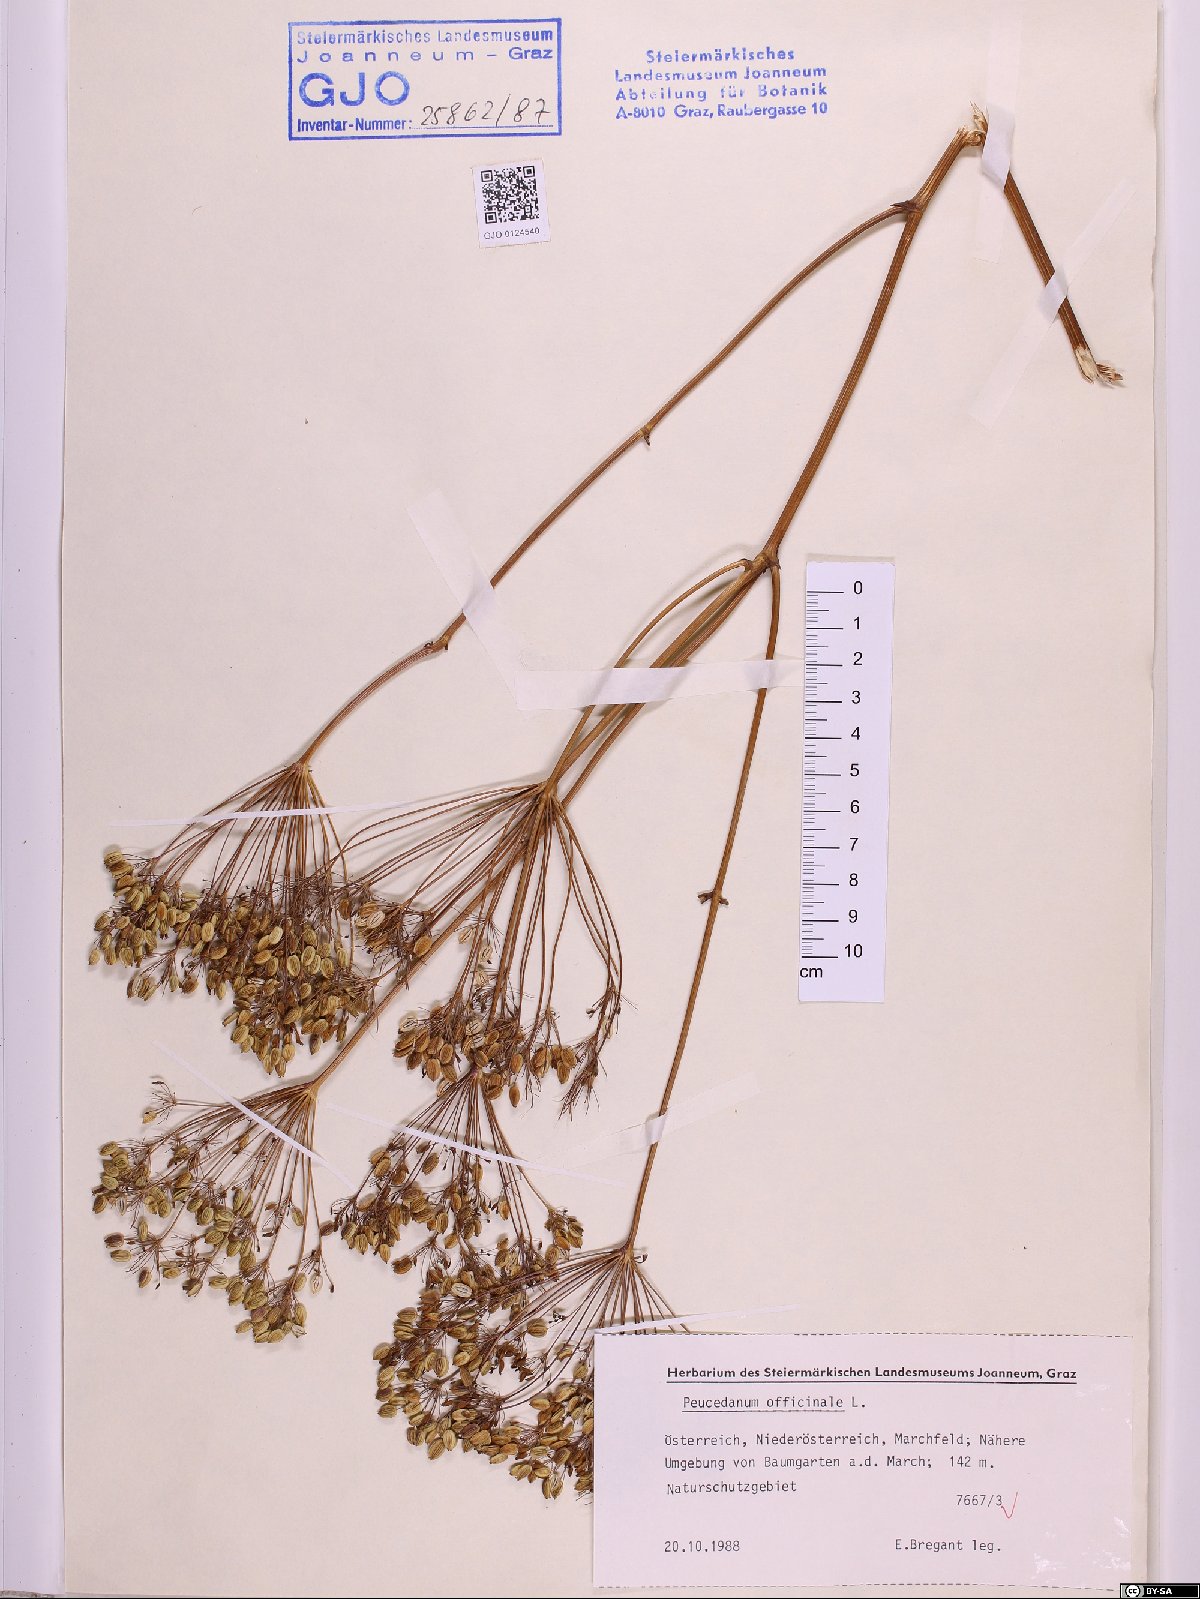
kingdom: Plantae
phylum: Tracheophyta
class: Magnoliopsida
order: Apiales
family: Apiaceae
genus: Peucedanum
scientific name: Peucedanum officinale
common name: Sulphurweed
